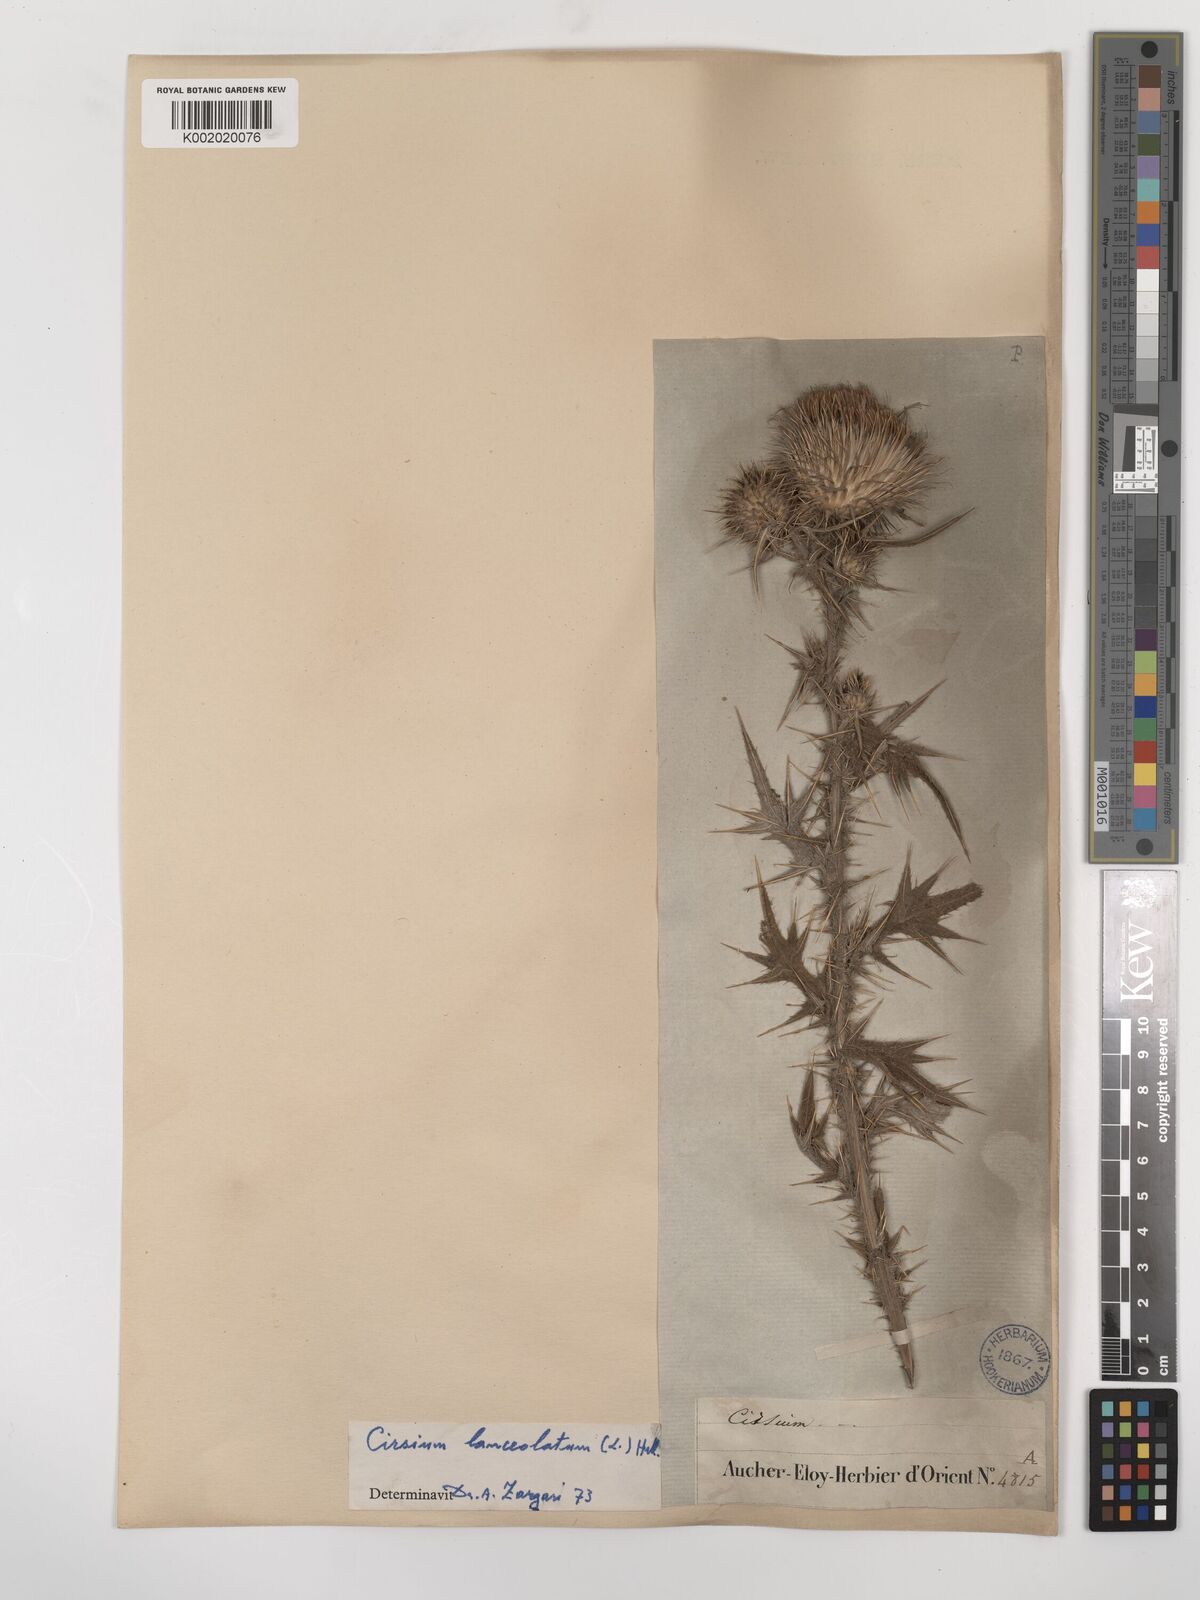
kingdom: Plantae
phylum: Tracheophyta
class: Magnoliopsida
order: Asterales
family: Asteraceae
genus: Cirsium
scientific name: Cirsium vulgare
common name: Bull thistle
